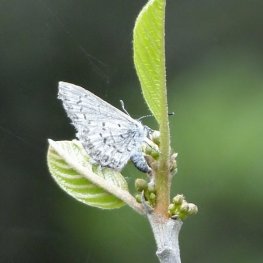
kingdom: Animalia
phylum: Arthropoda
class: Insecta
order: Lepidoptera
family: Lycaenidae
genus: Celastrina
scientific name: Celastrina lucia
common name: Northern Spring Azure
